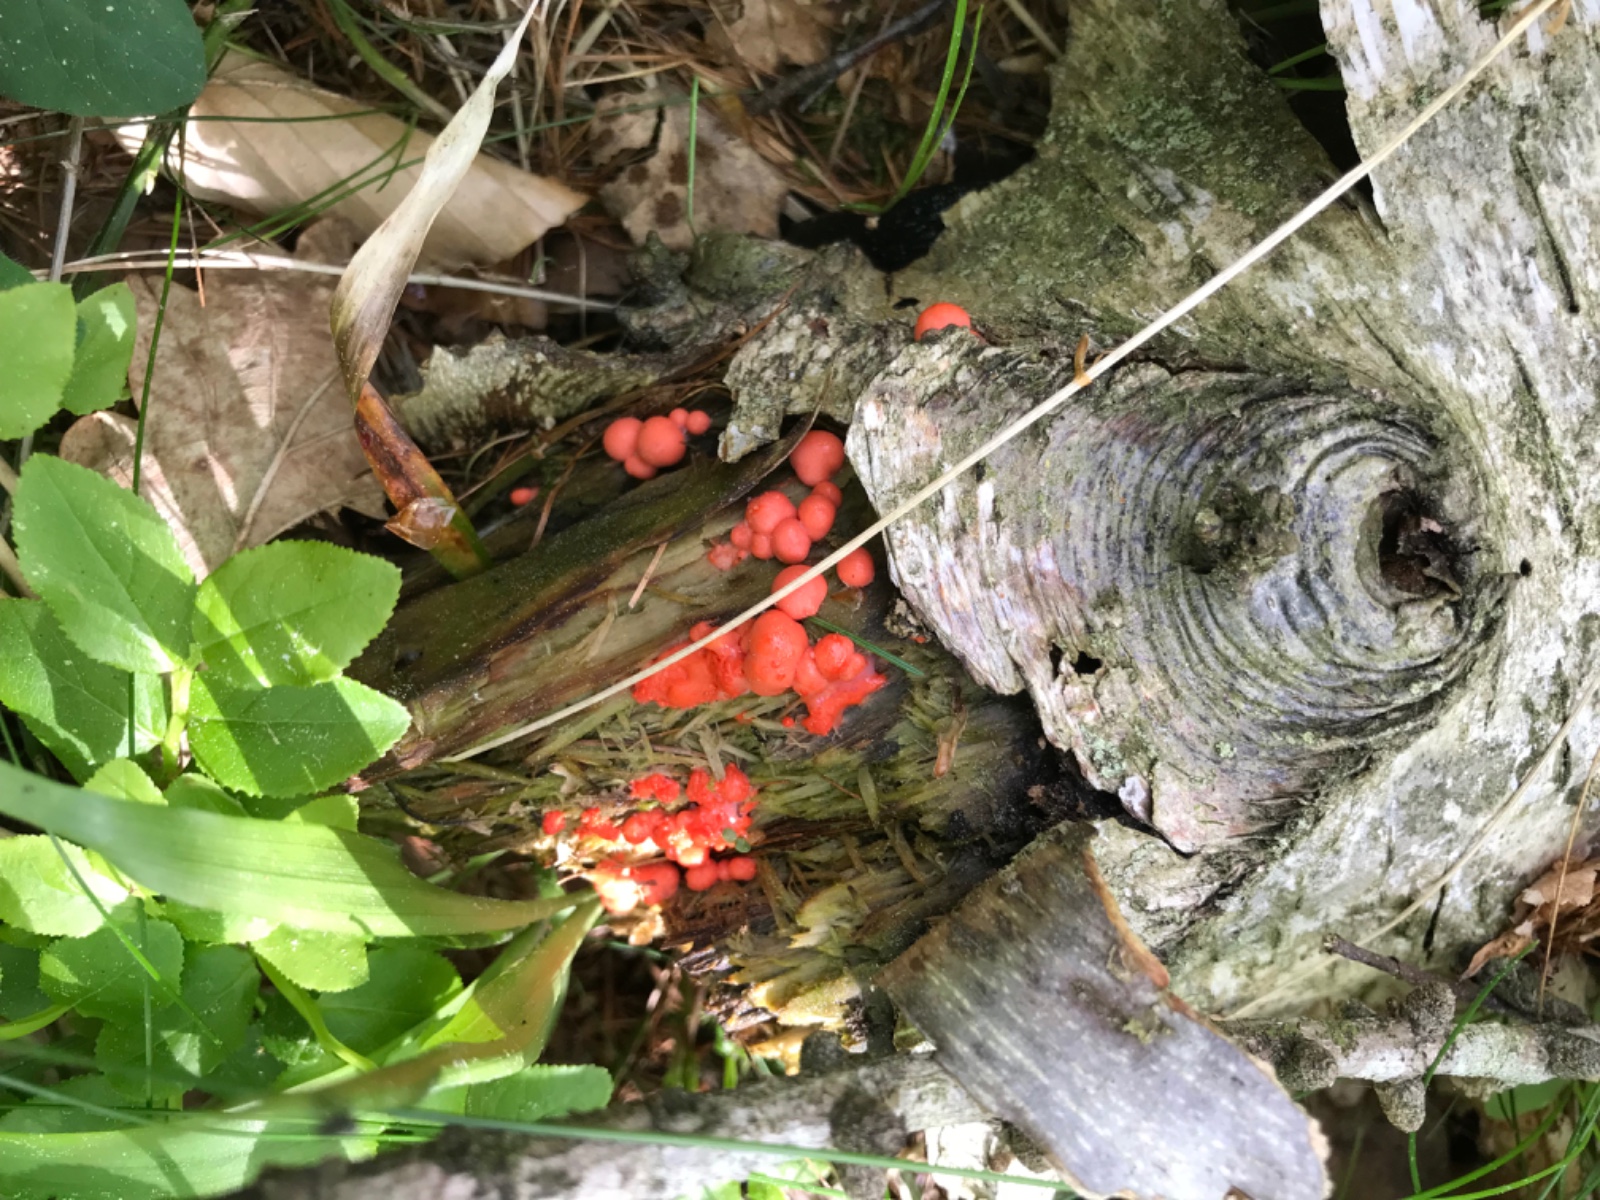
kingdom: Protozoa
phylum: Mycetozoa
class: Myxomycetes
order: Cribrariales
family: Tubiferaceae
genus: Lycogala
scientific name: Lycogala epidendrum
